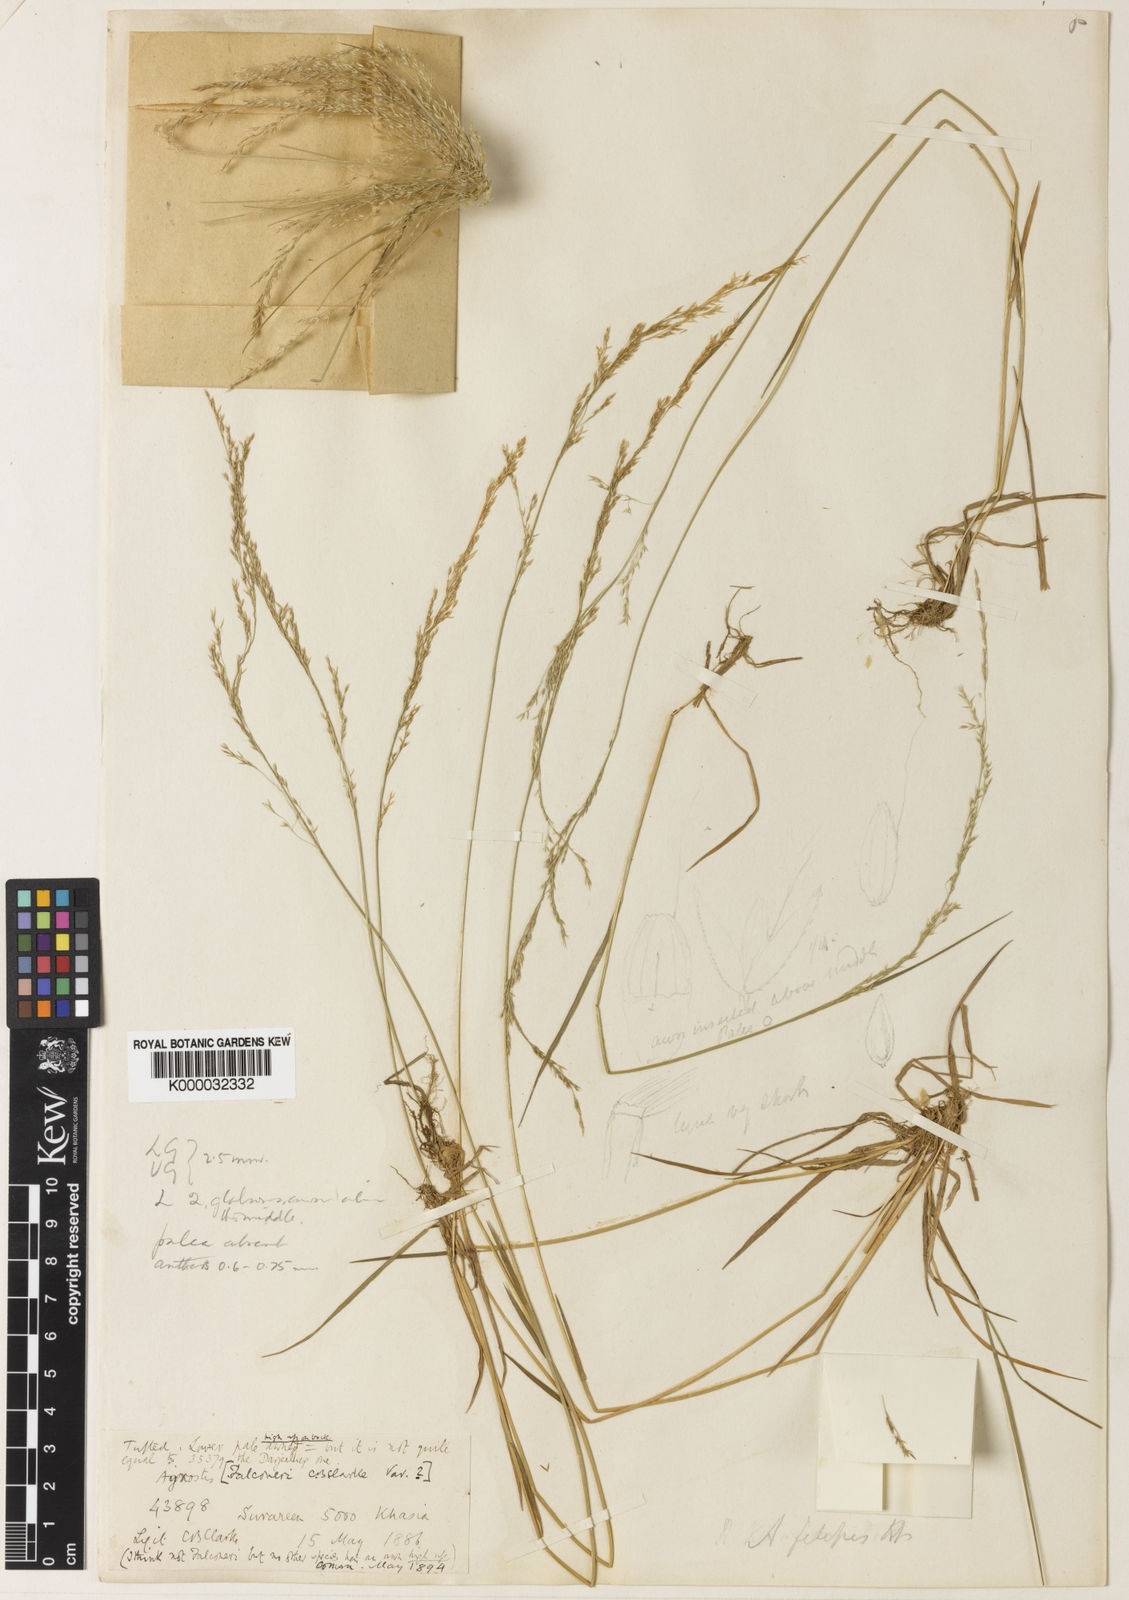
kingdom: Plantae
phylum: Tracheophyta
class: Liliopsida
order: Poales
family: Poaceae
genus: Agrostis
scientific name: Agrostis filipes
